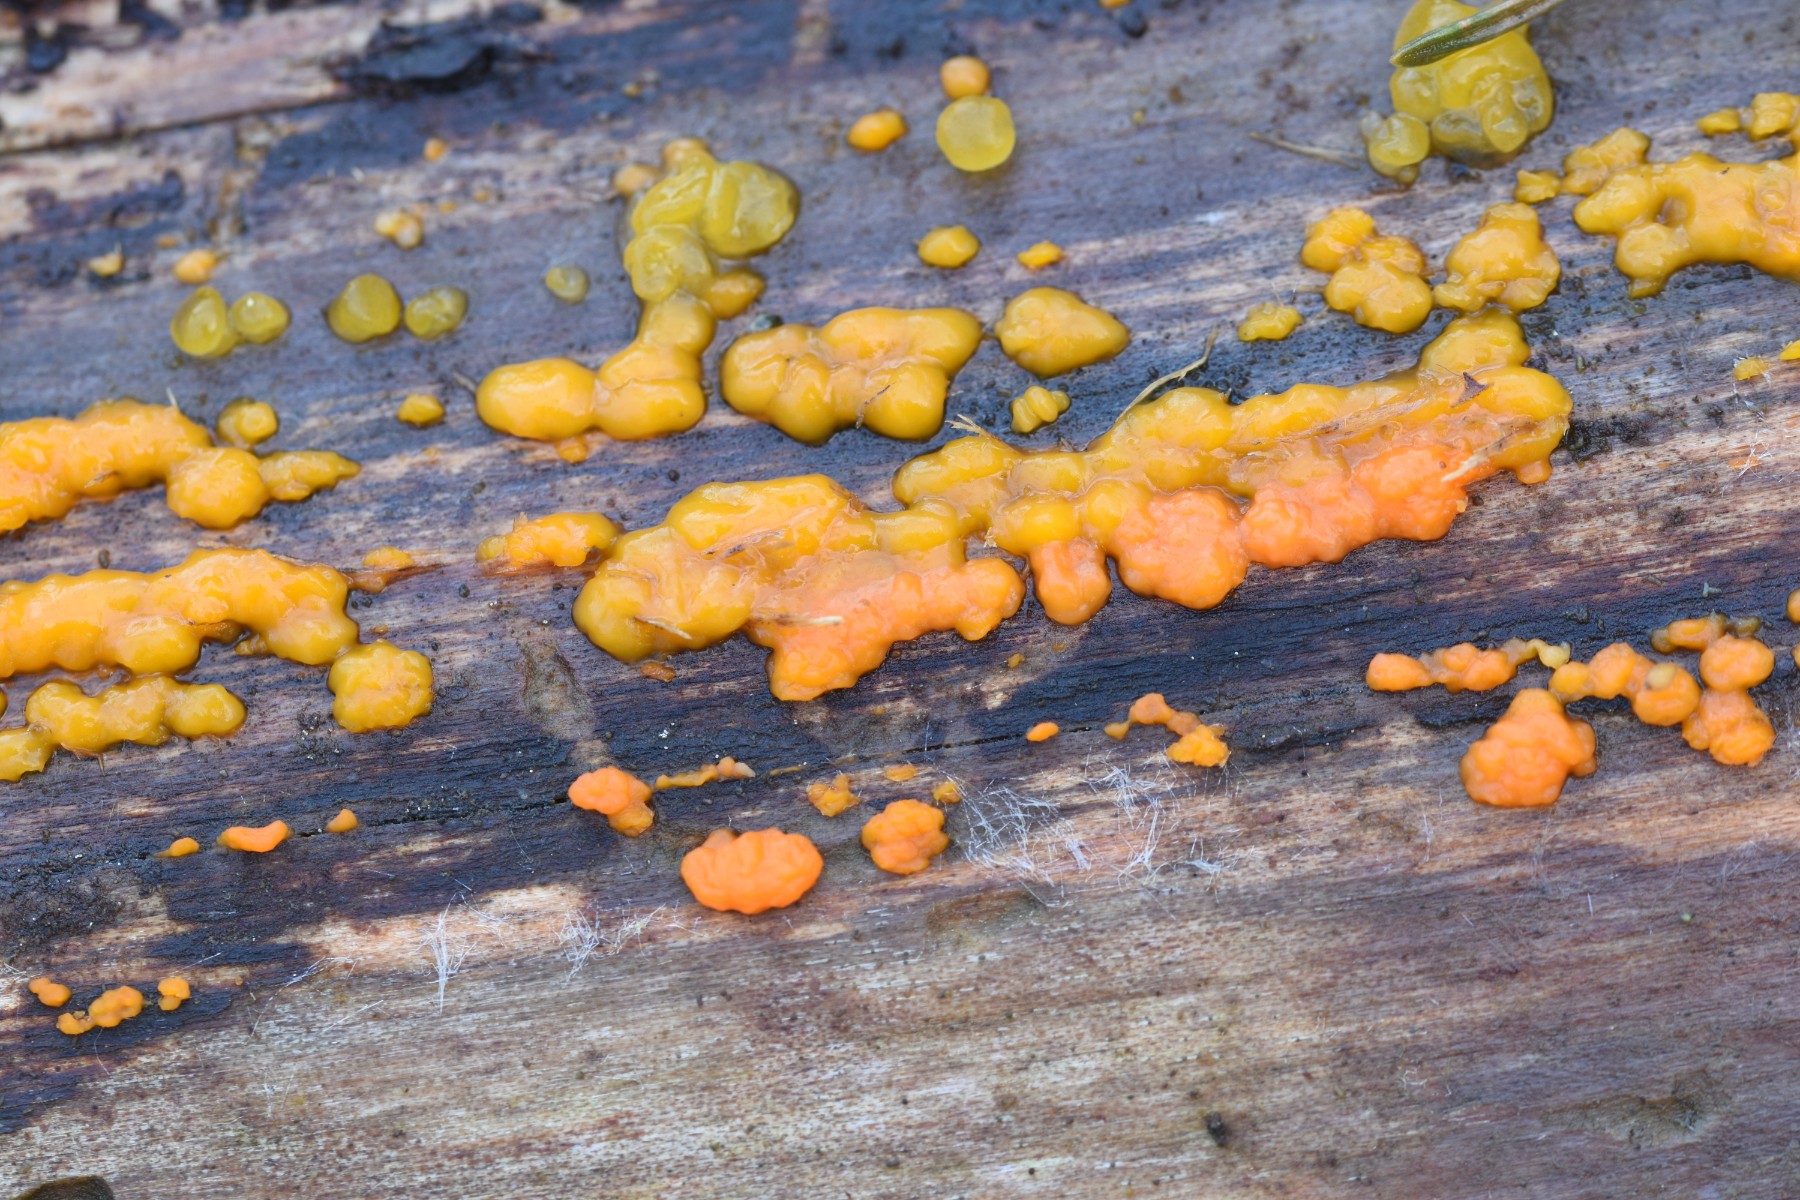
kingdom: Fungi
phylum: Basidiomycota
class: Dacrymycetes
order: Dacrymycetales
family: Dacrymycetaceae
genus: Dacrymyces
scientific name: Dacrymyces stillatus
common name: almindelig tåresvamp
